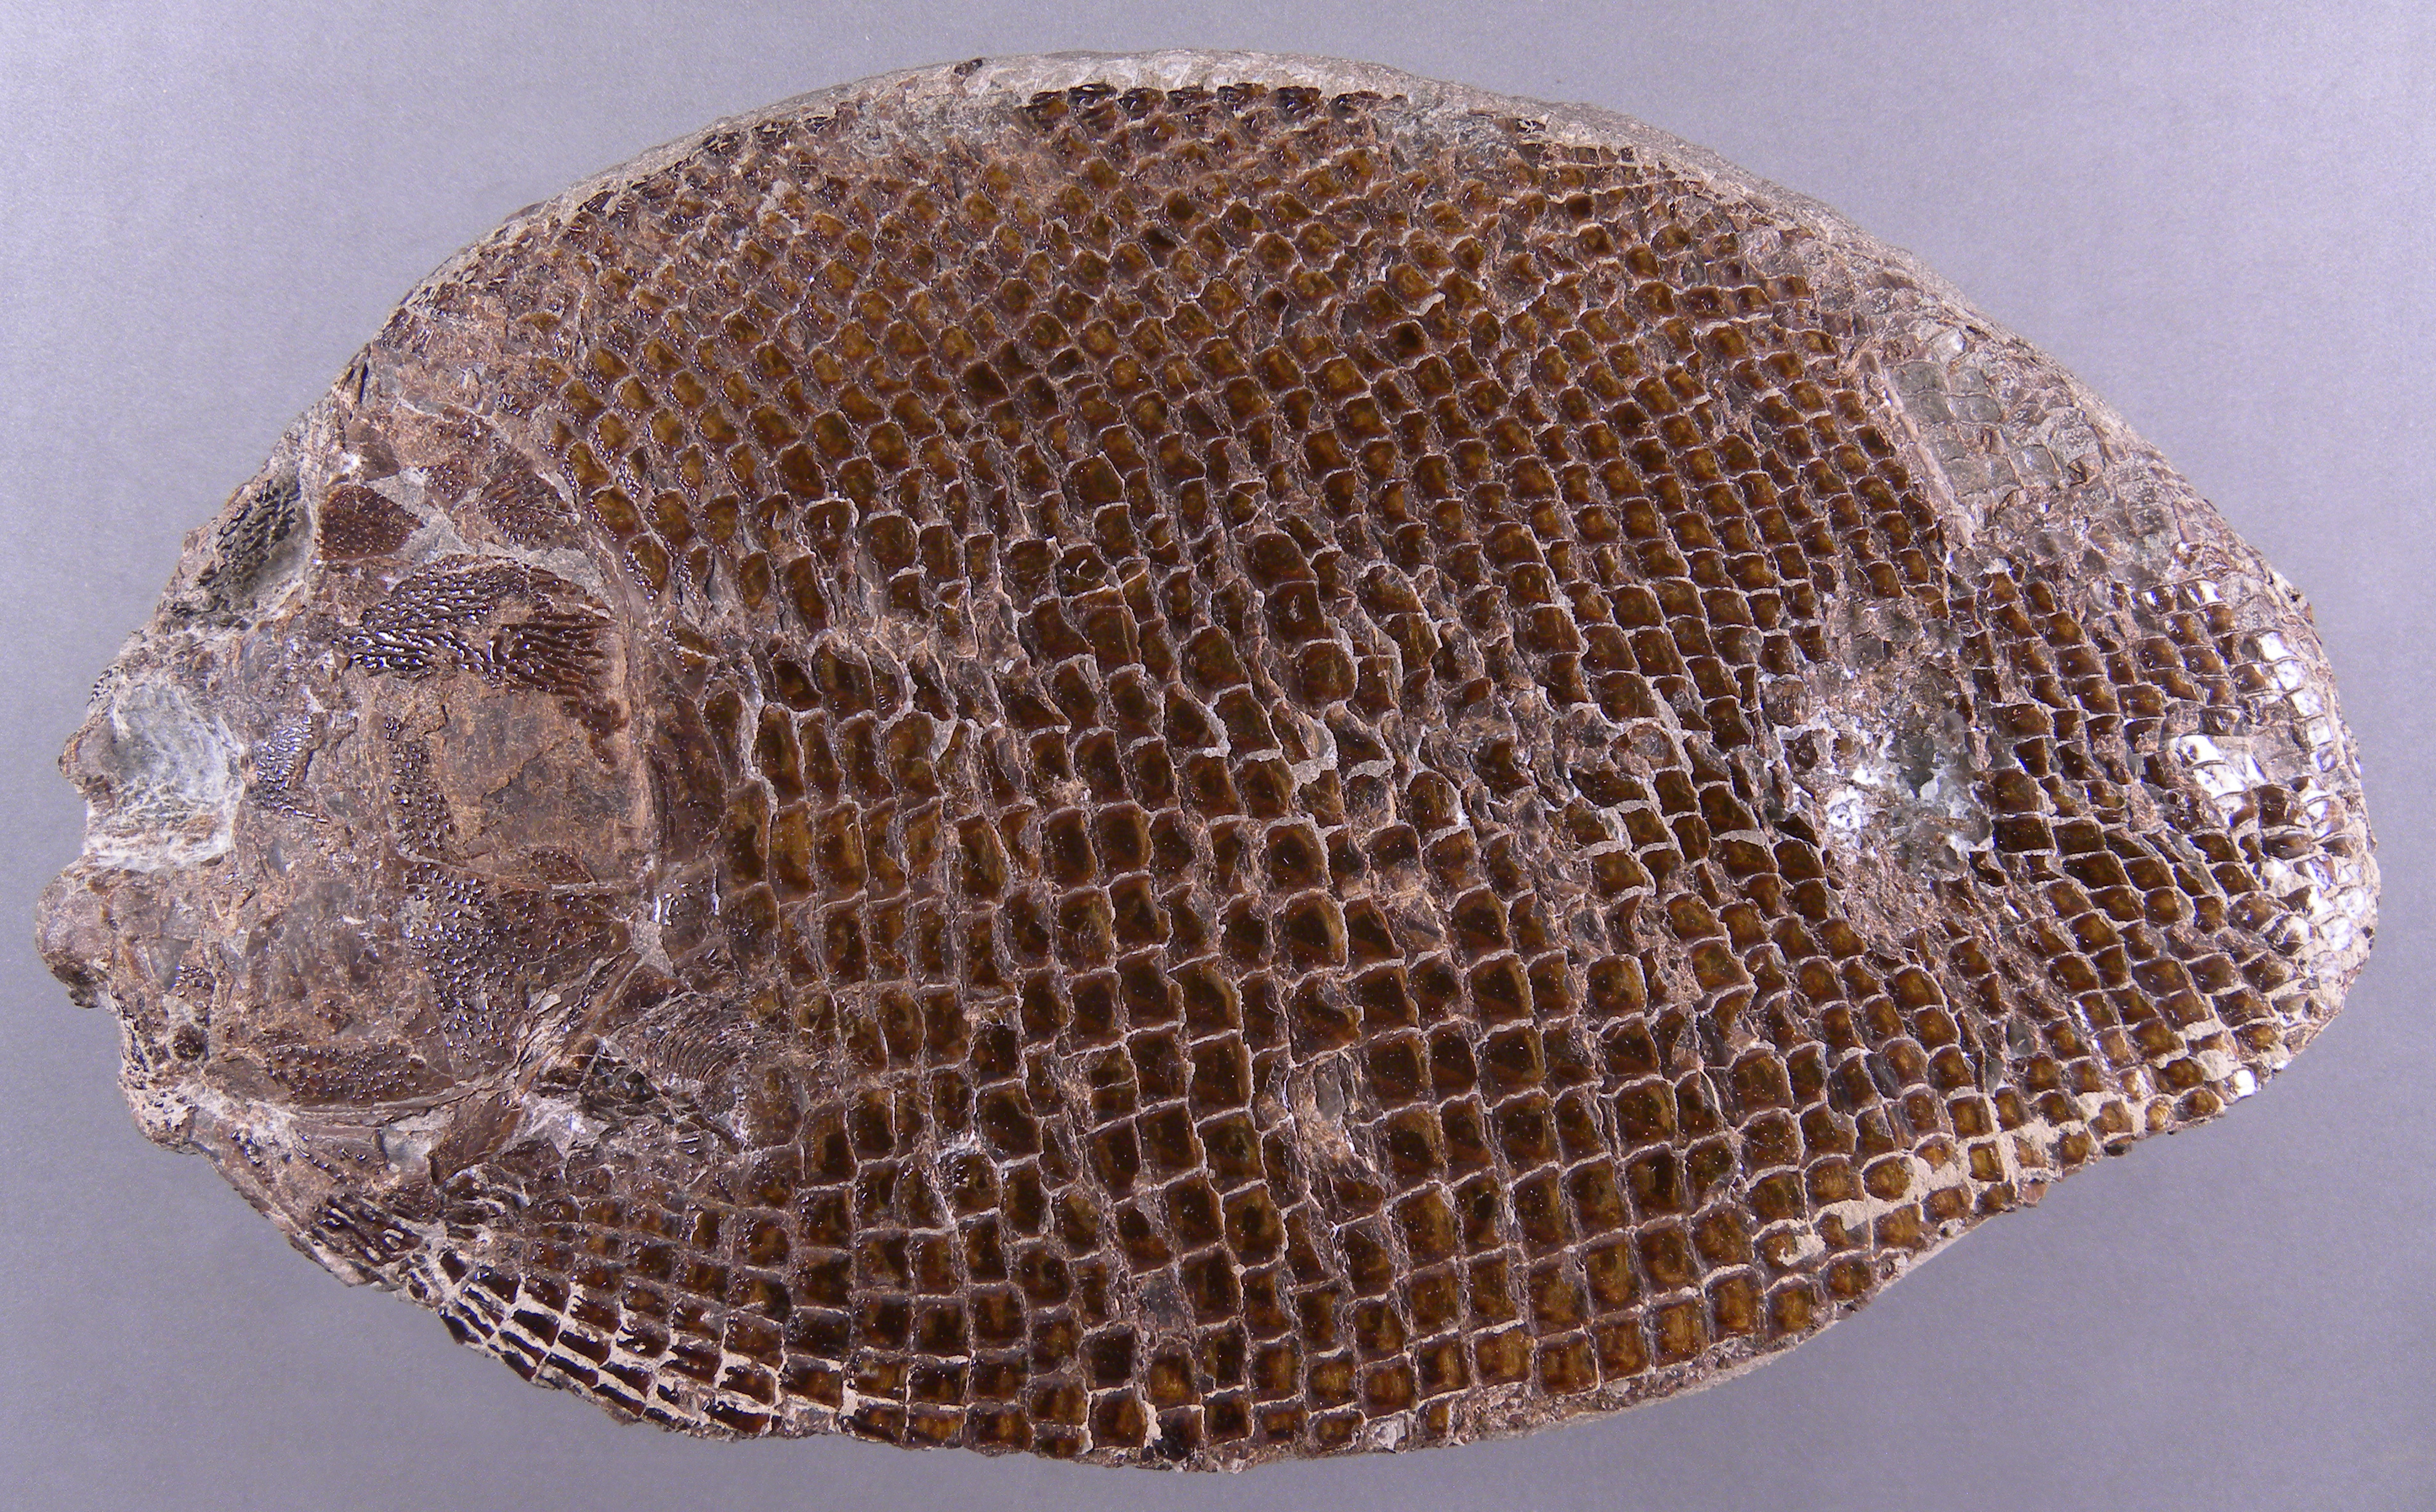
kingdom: Animalia
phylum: Chordata
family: Dapediidae
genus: Dapedium
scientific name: Dapedium
